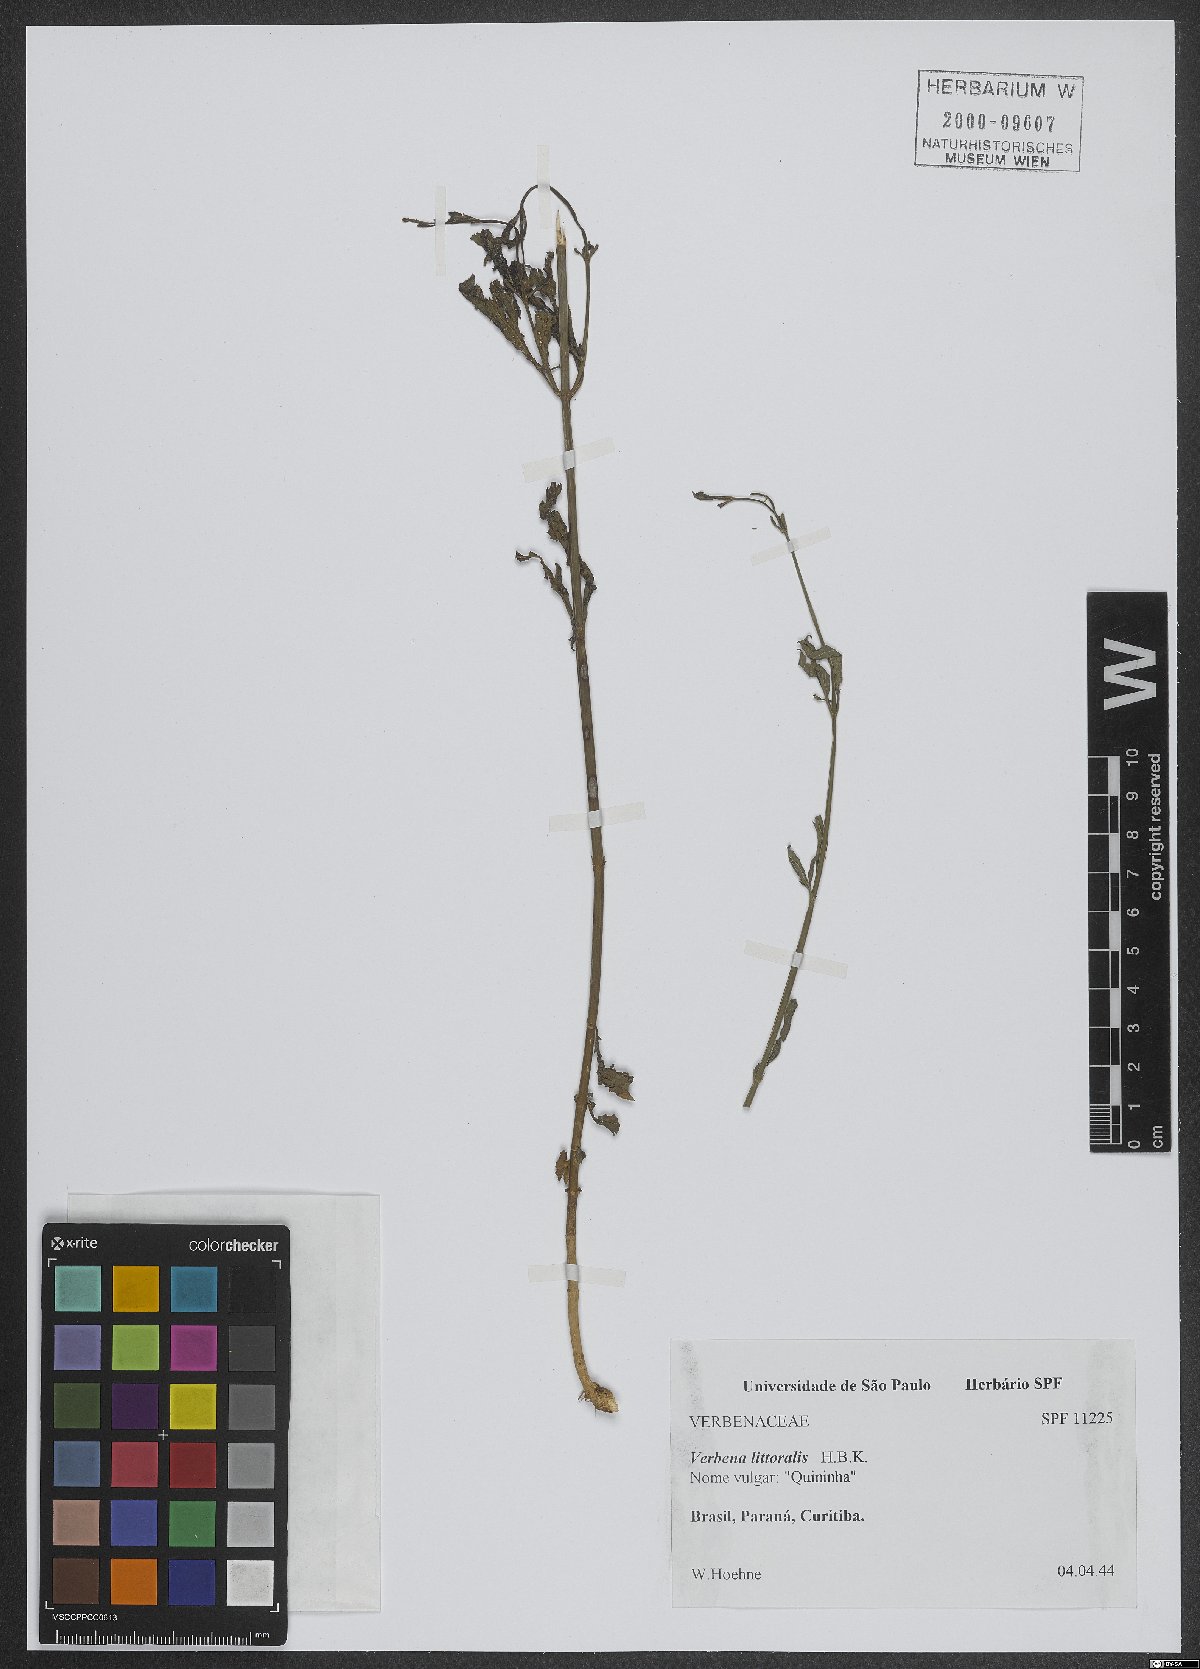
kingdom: Plantae
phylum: Tracheophyta
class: Magnoliopsida
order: Lamiales
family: Verbenaceae
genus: Verbena
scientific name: Verbena litoralis
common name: Seashore vervain
